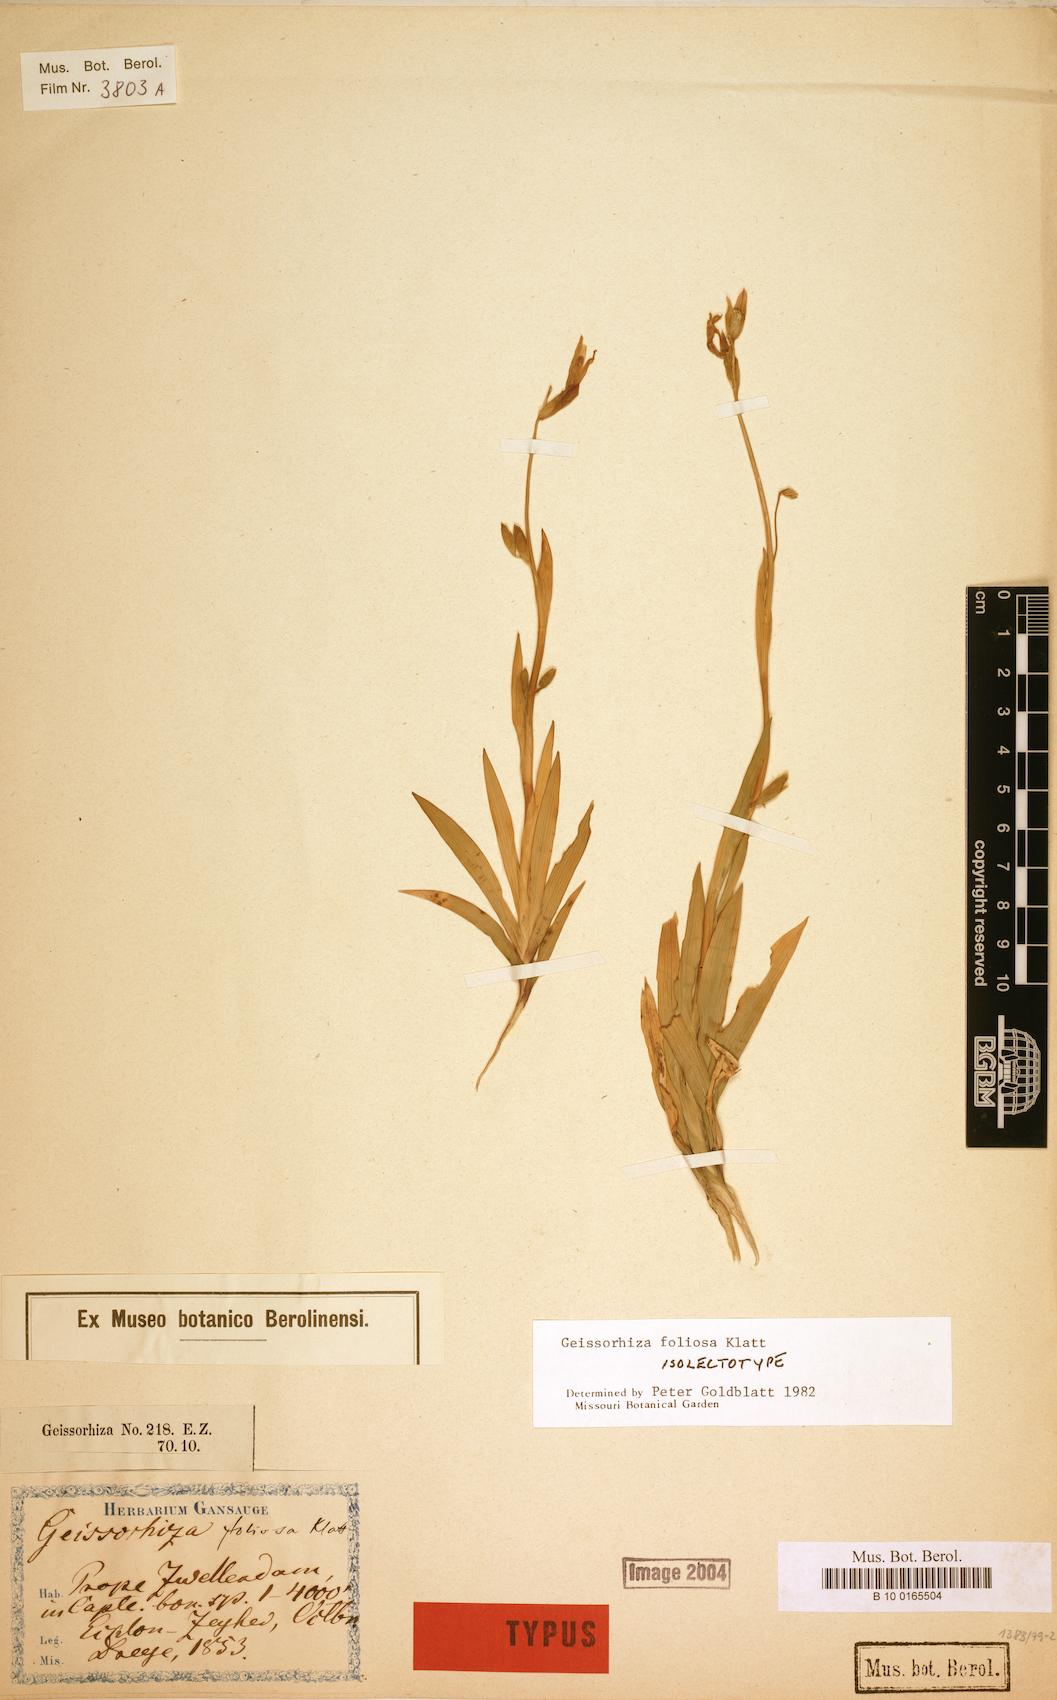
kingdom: Plantae
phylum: Tracheophyta
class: Liliopsida
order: Asparagales
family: Iridaceae
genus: Geissorhiza
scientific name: Geissorhiza foliosa
